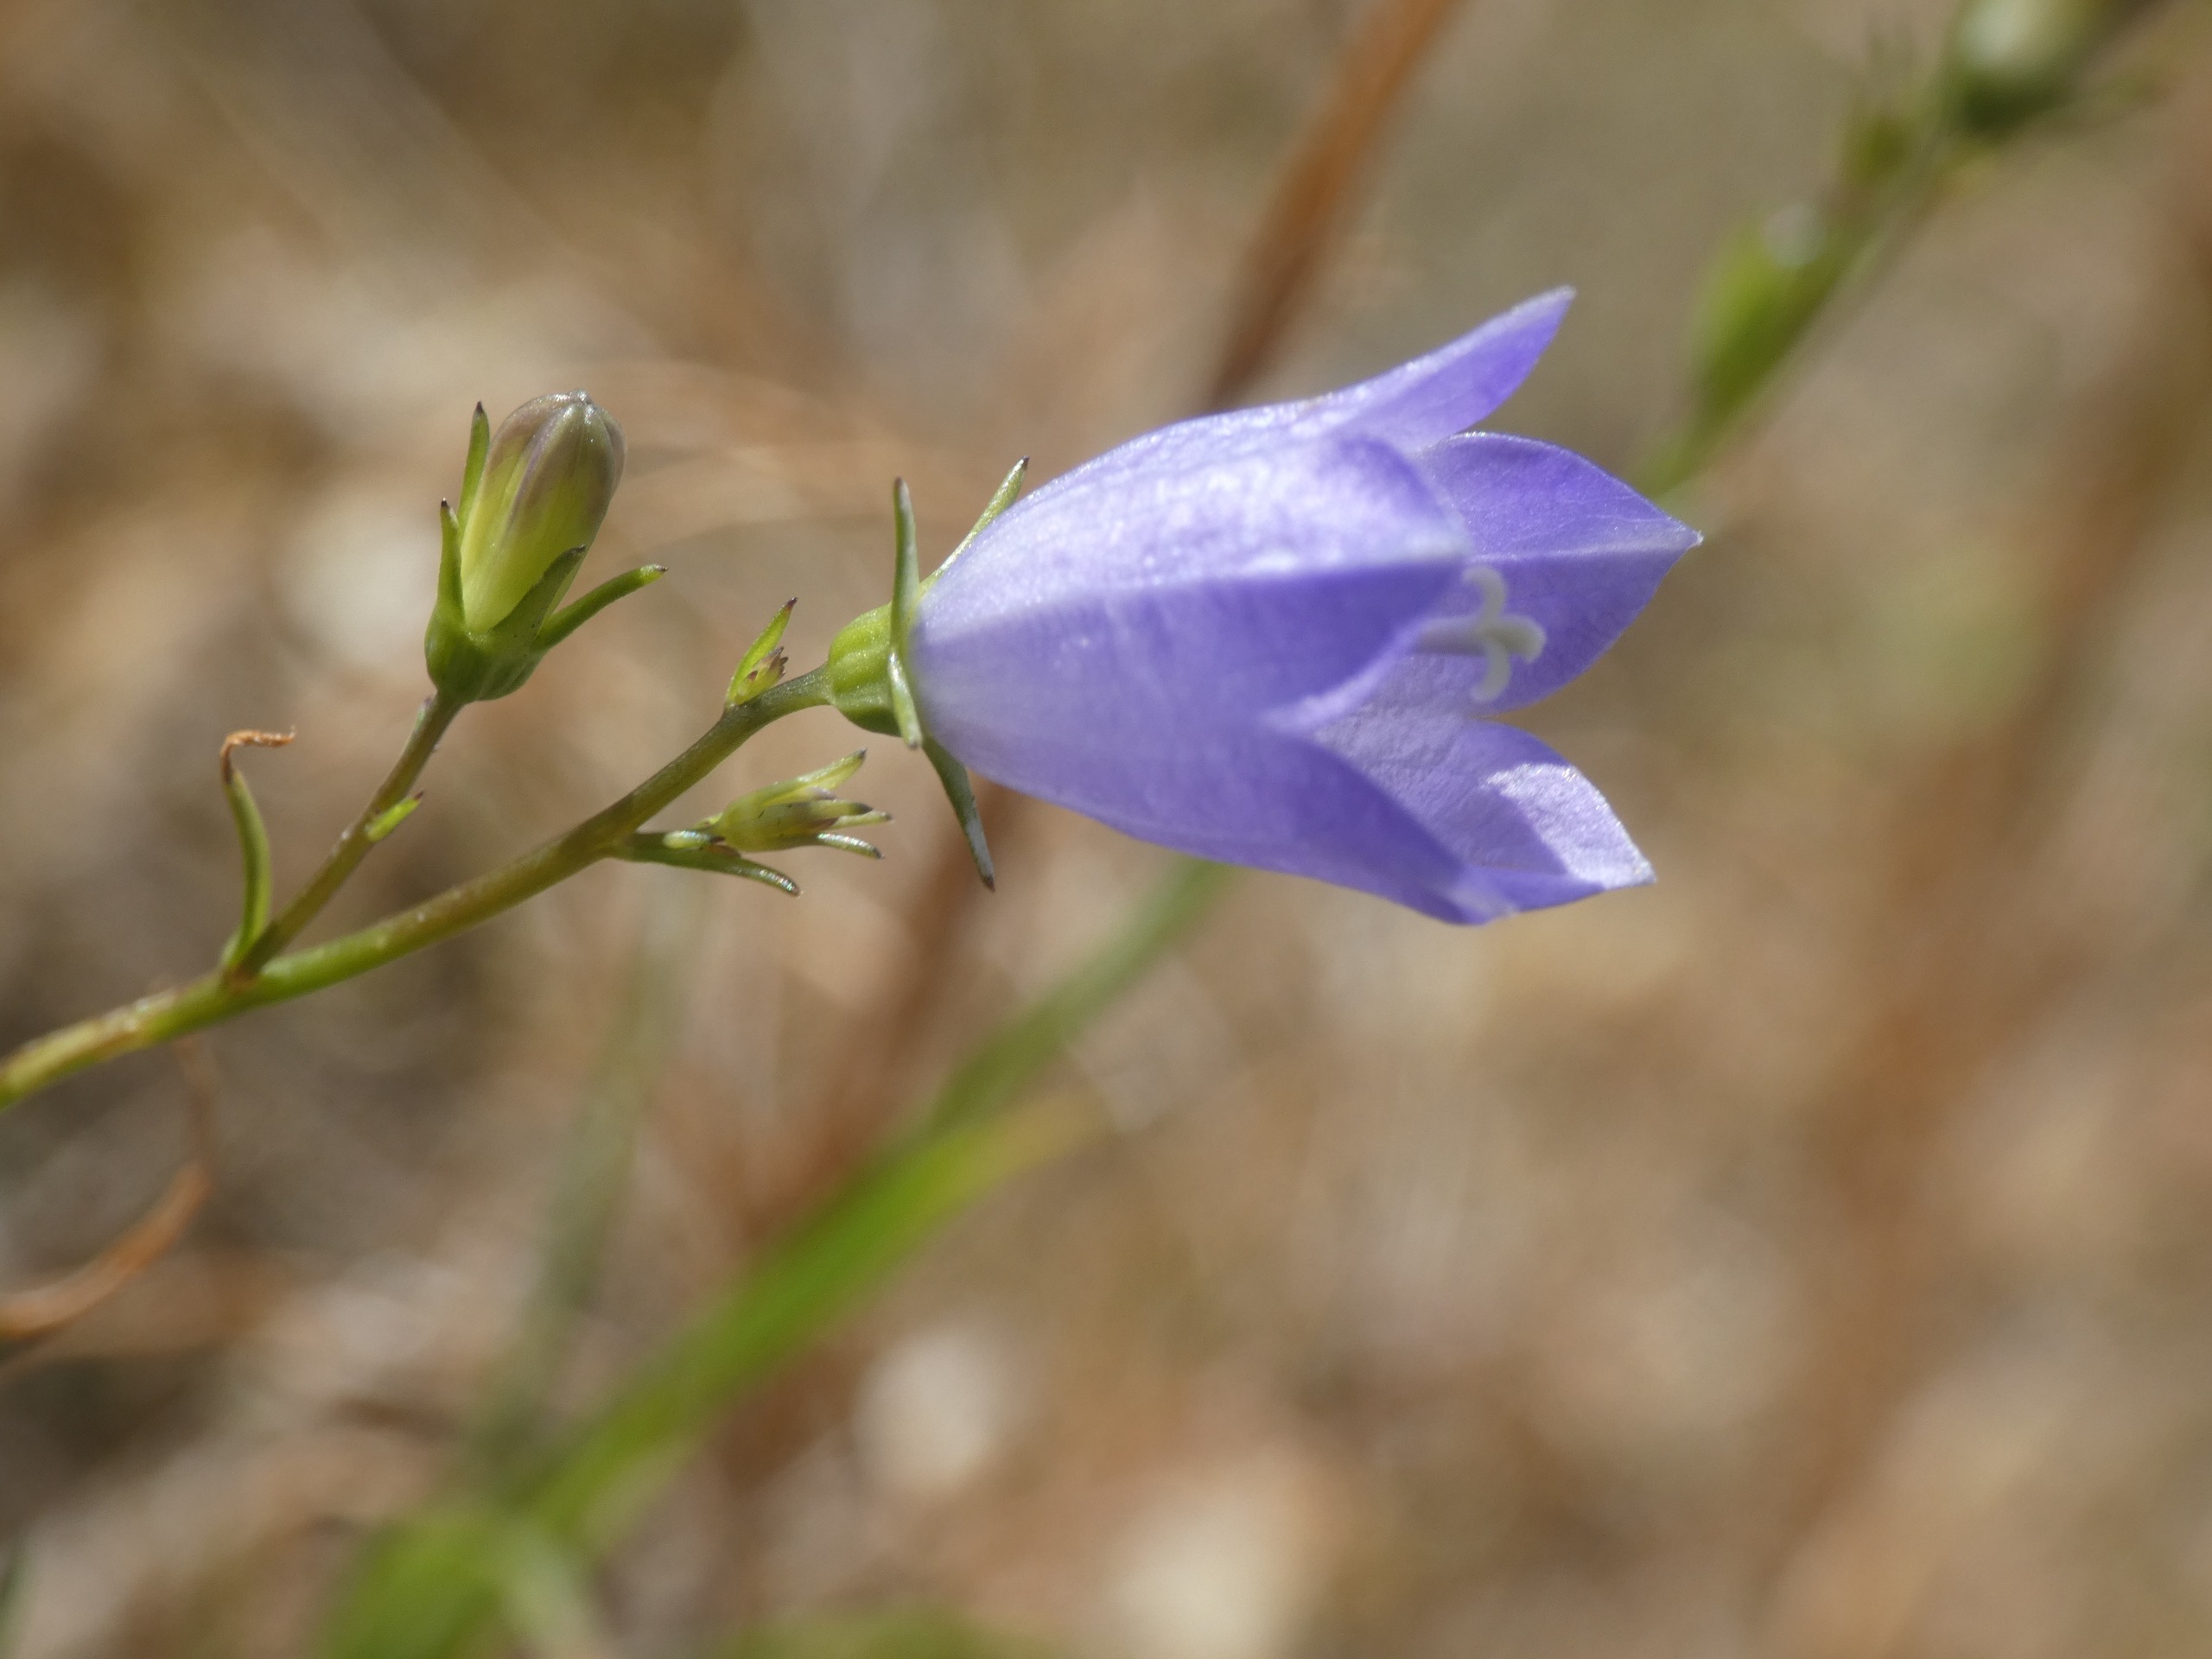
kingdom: Plantae
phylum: Tracheophyta
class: Magnoliopsida
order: Asterales
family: Campanulaceae
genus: Campanula
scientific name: Campanula rotundifolia
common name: Liden klokke
